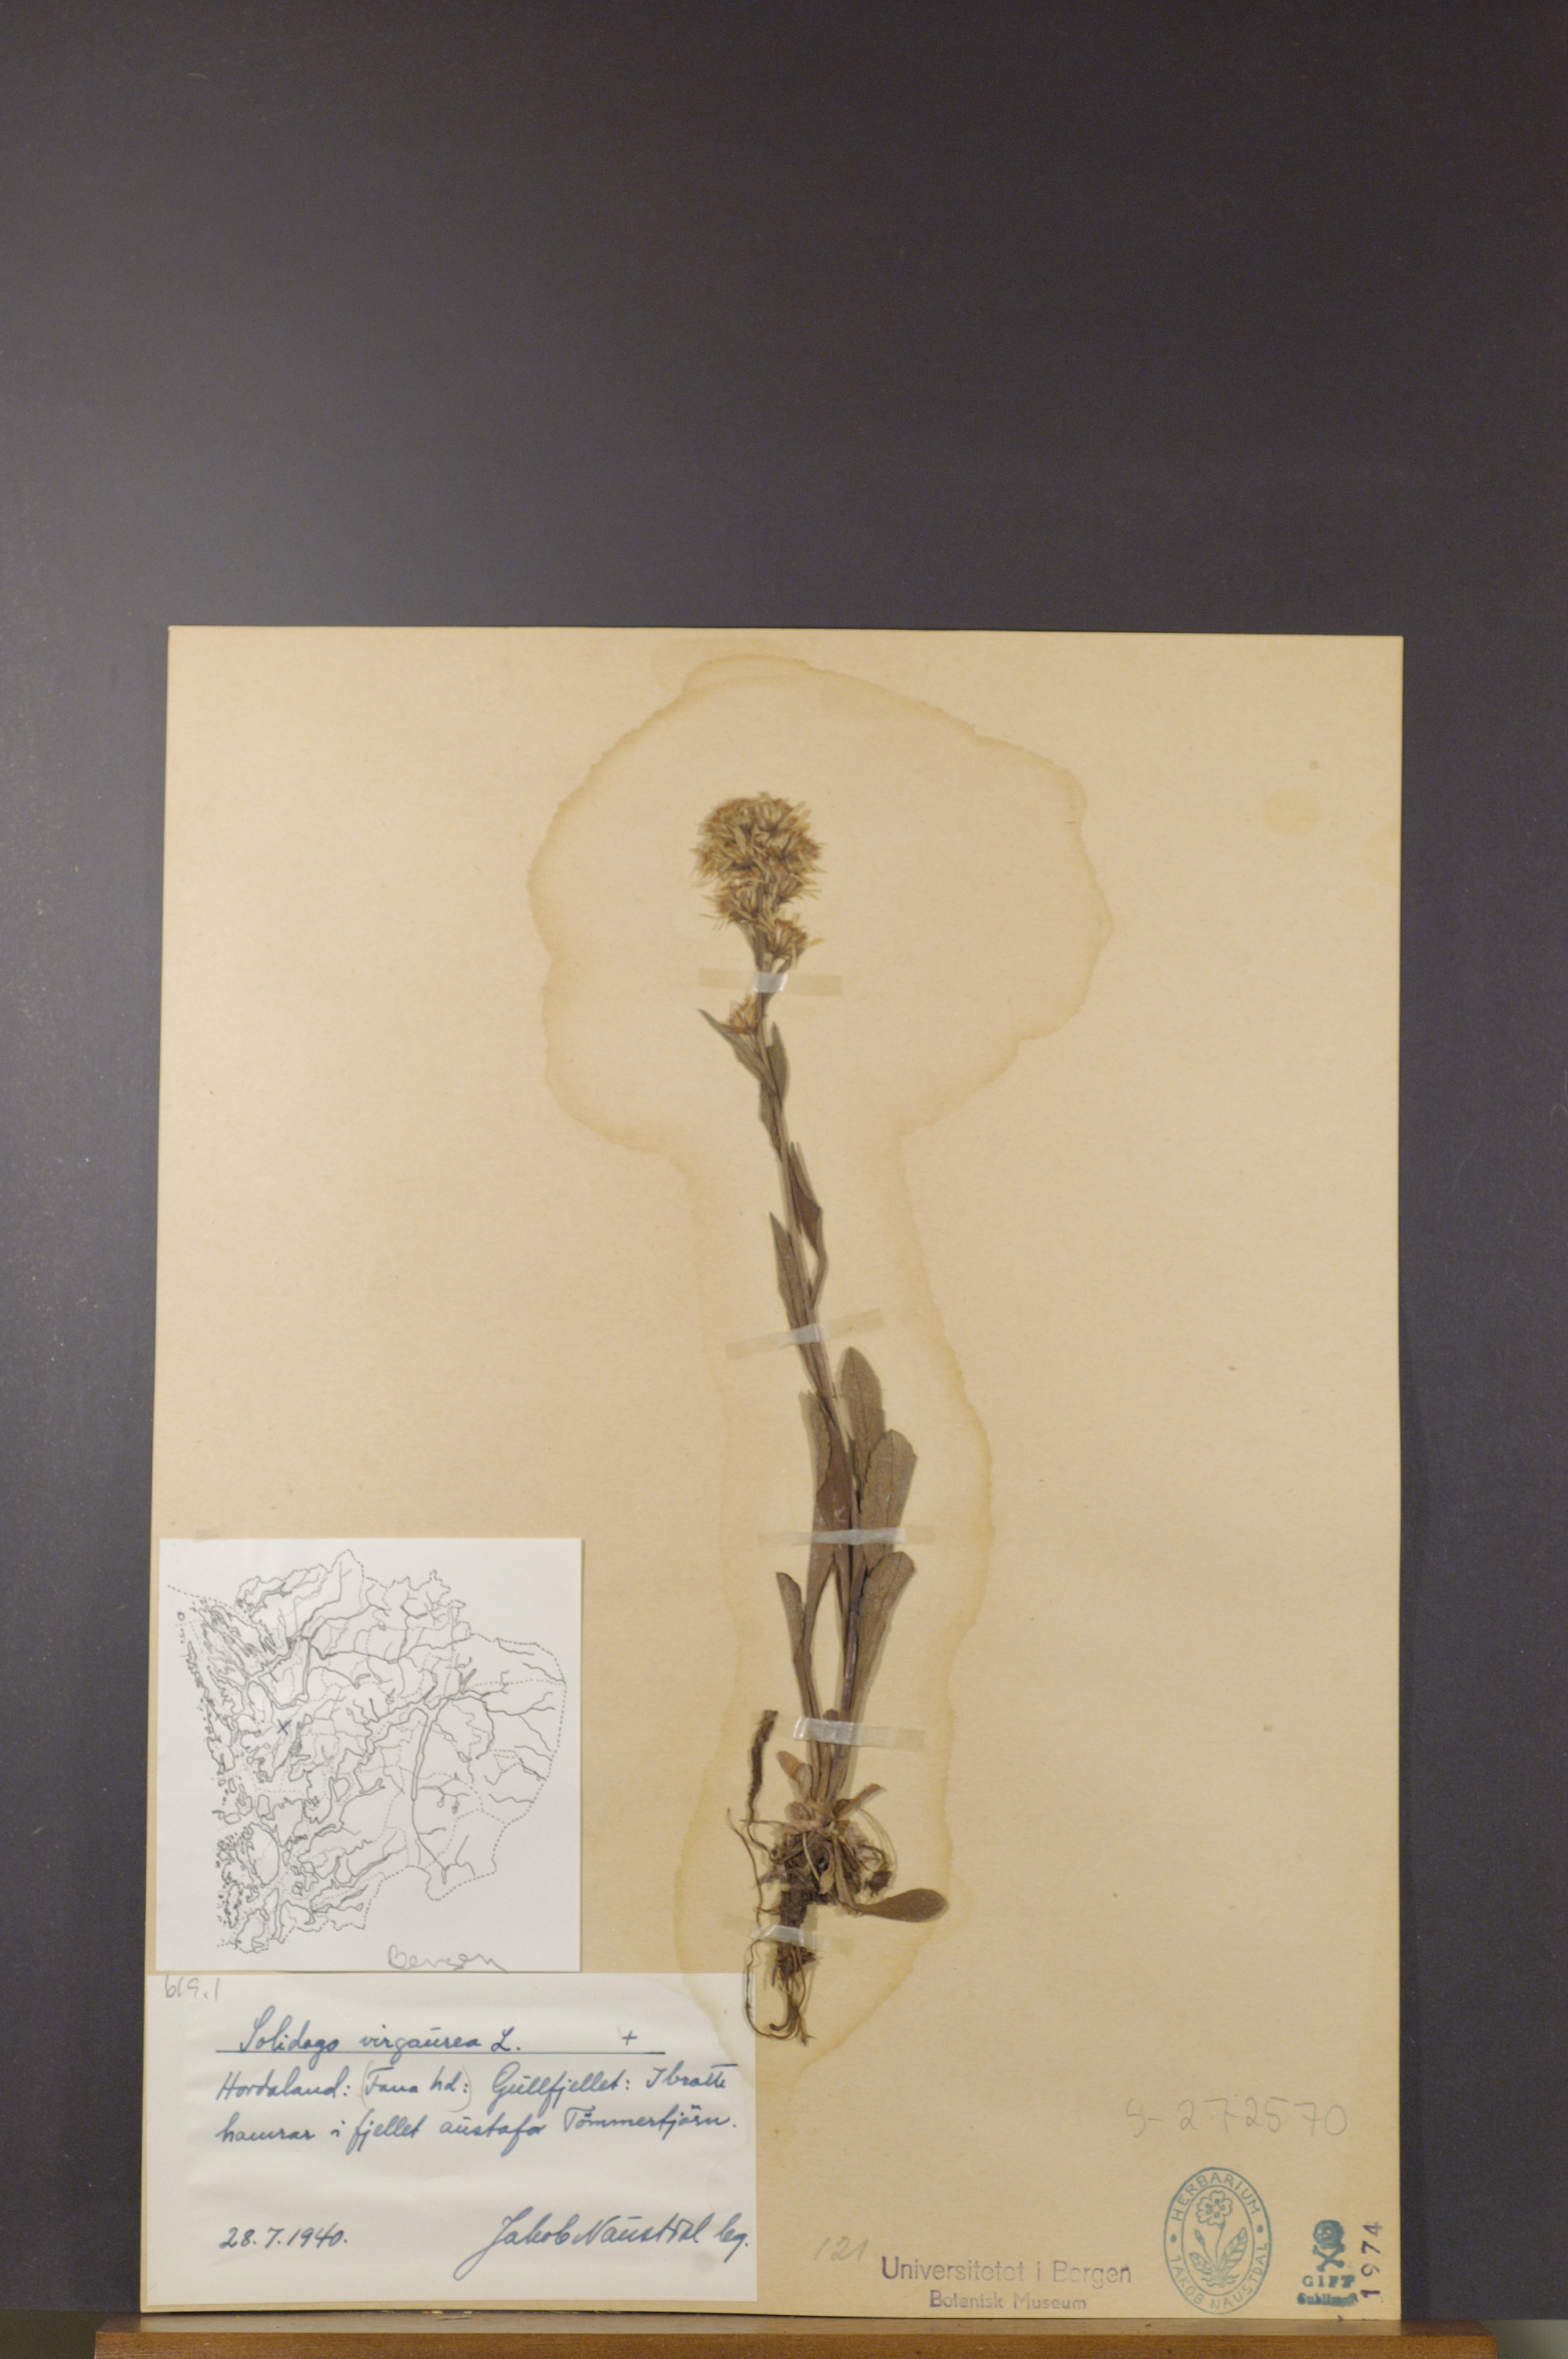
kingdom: Plantae
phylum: Tracheophyta
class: Magnoliopsida
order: Asterales
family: Asteraceae
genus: Solidago
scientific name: Solidago virgaurea
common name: Goldenrod
